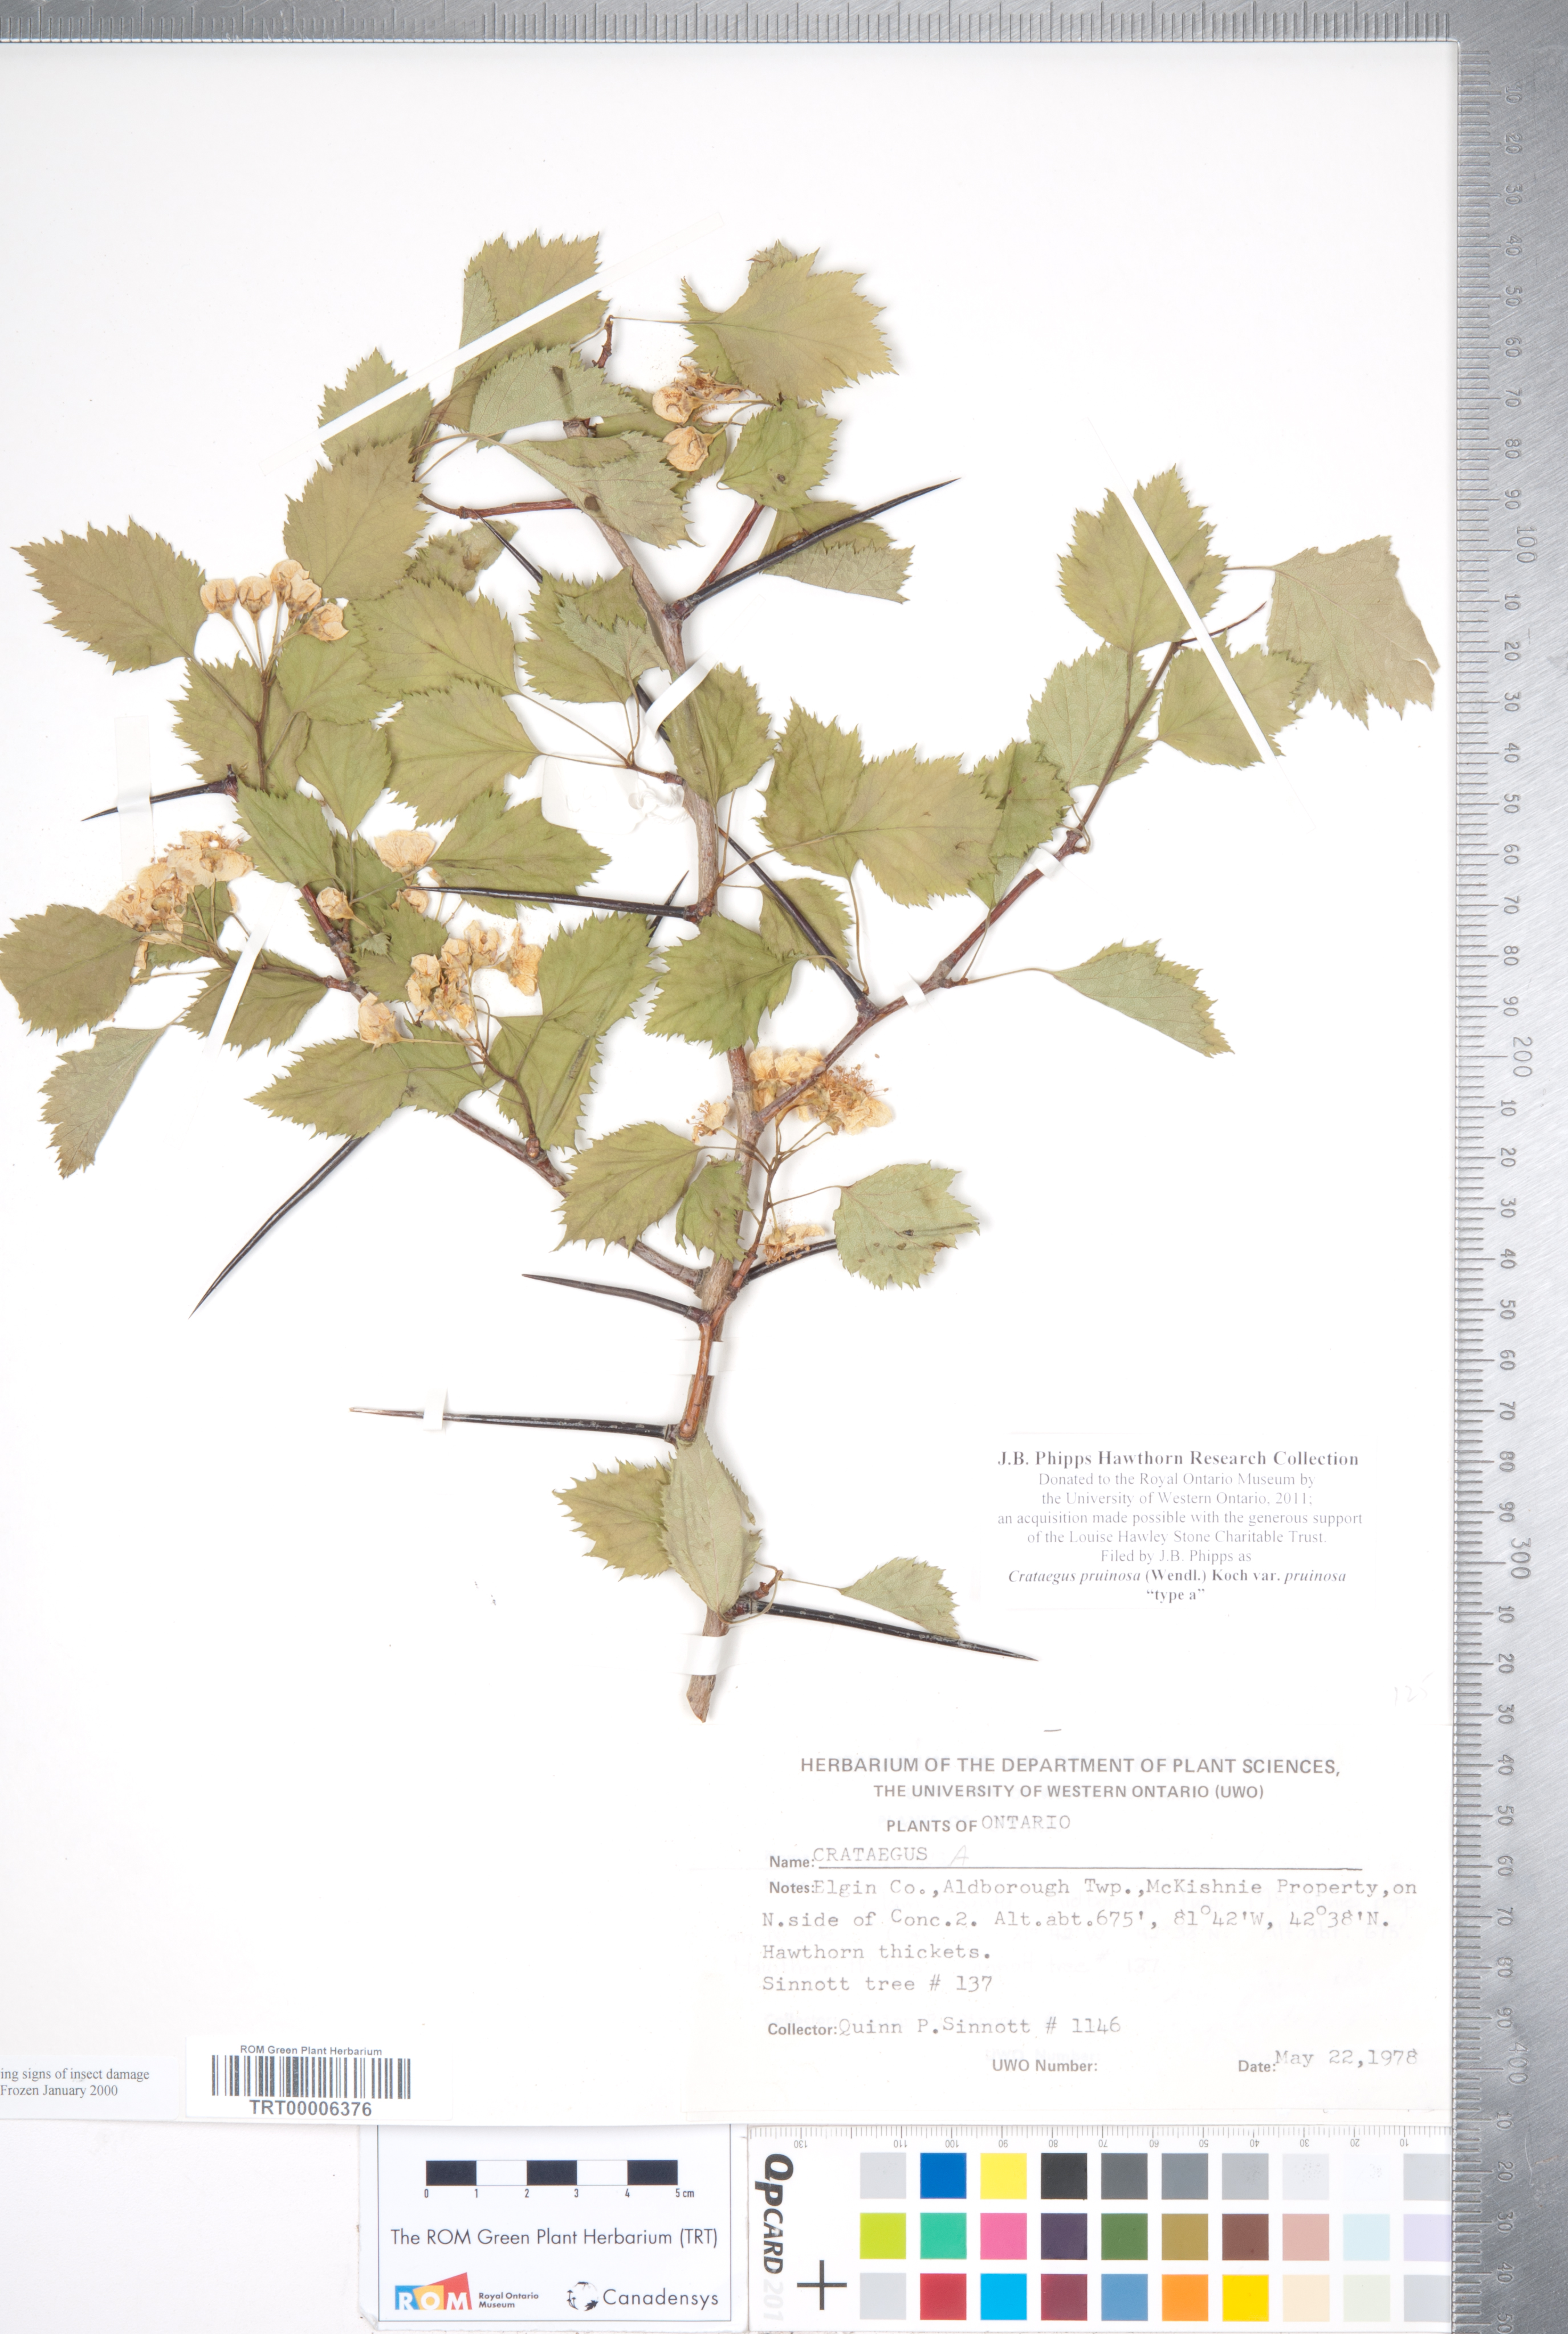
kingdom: Plantae
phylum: Tracheophyta
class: Magnoliopsida
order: Rosales
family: Rosaceae
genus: Crataegus
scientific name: Crataegus pruinosa
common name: Waxy-fruit hawthorn
